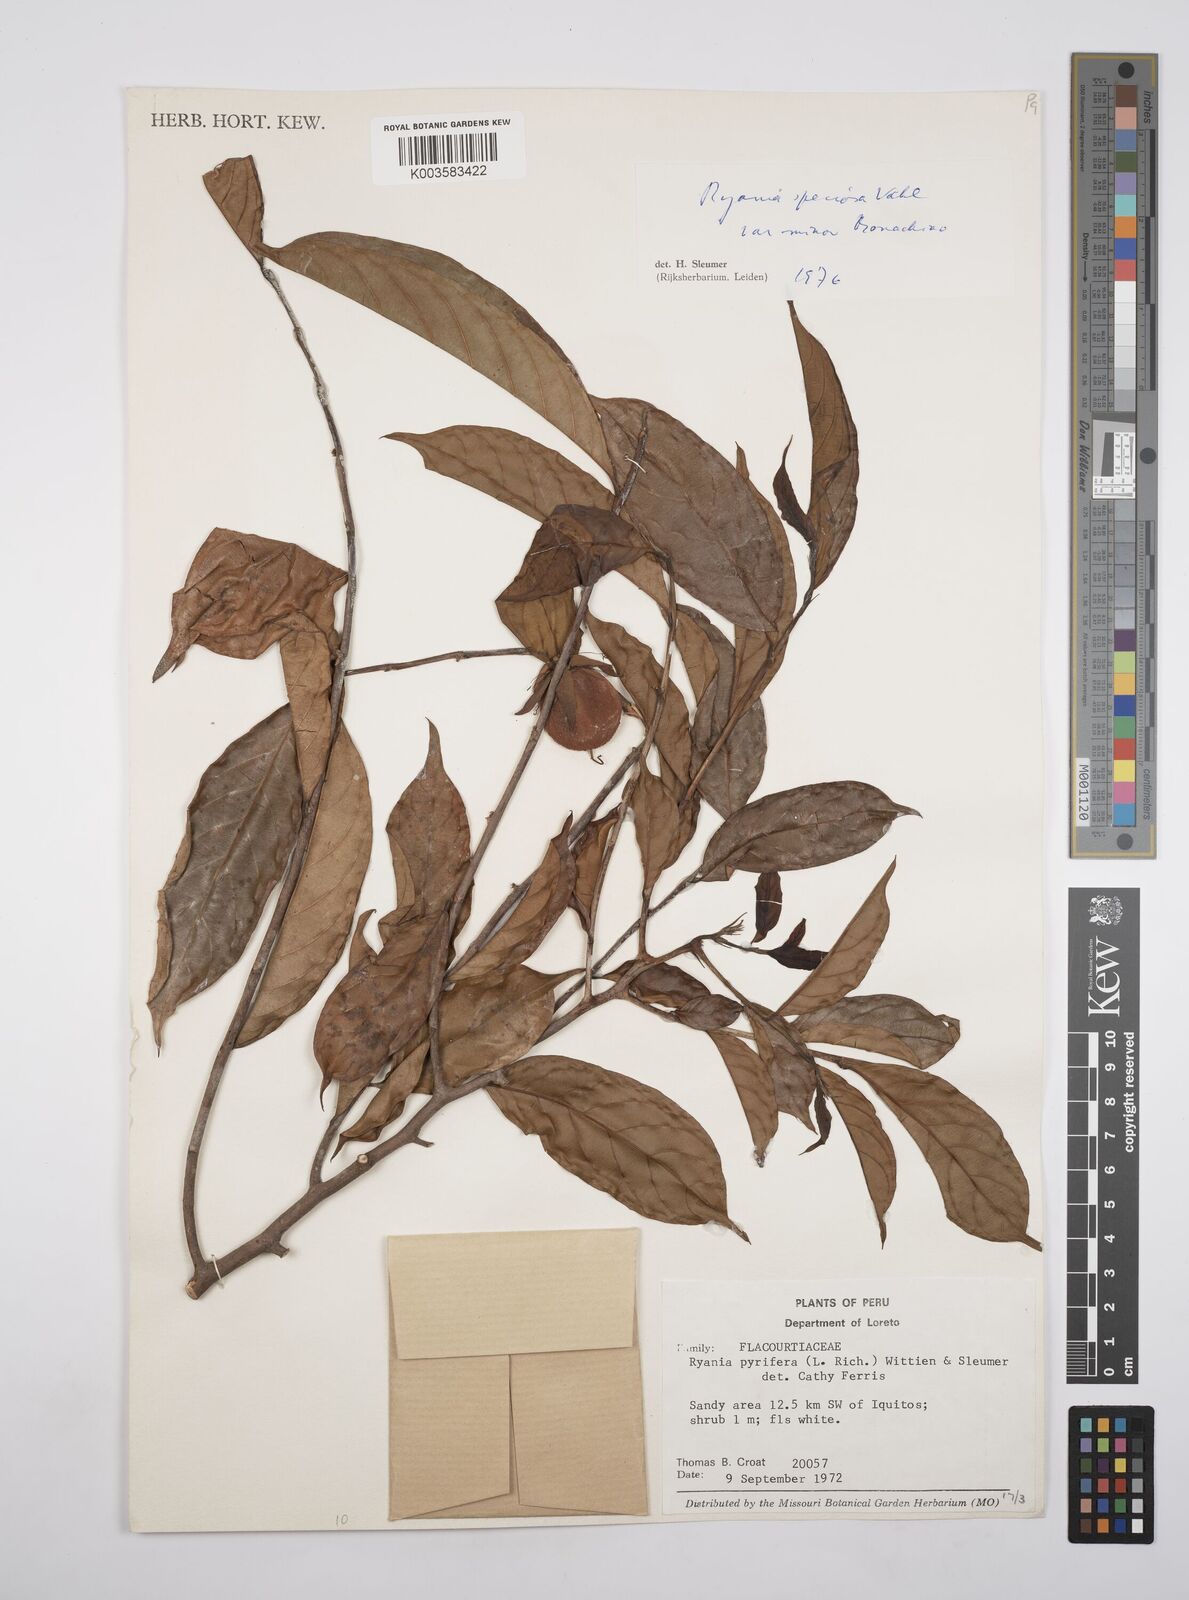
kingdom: Plantae
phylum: Tracheophyta
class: Magnoliopsida
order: Malpighiales
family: Salicaceae
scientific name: Salicaceae
